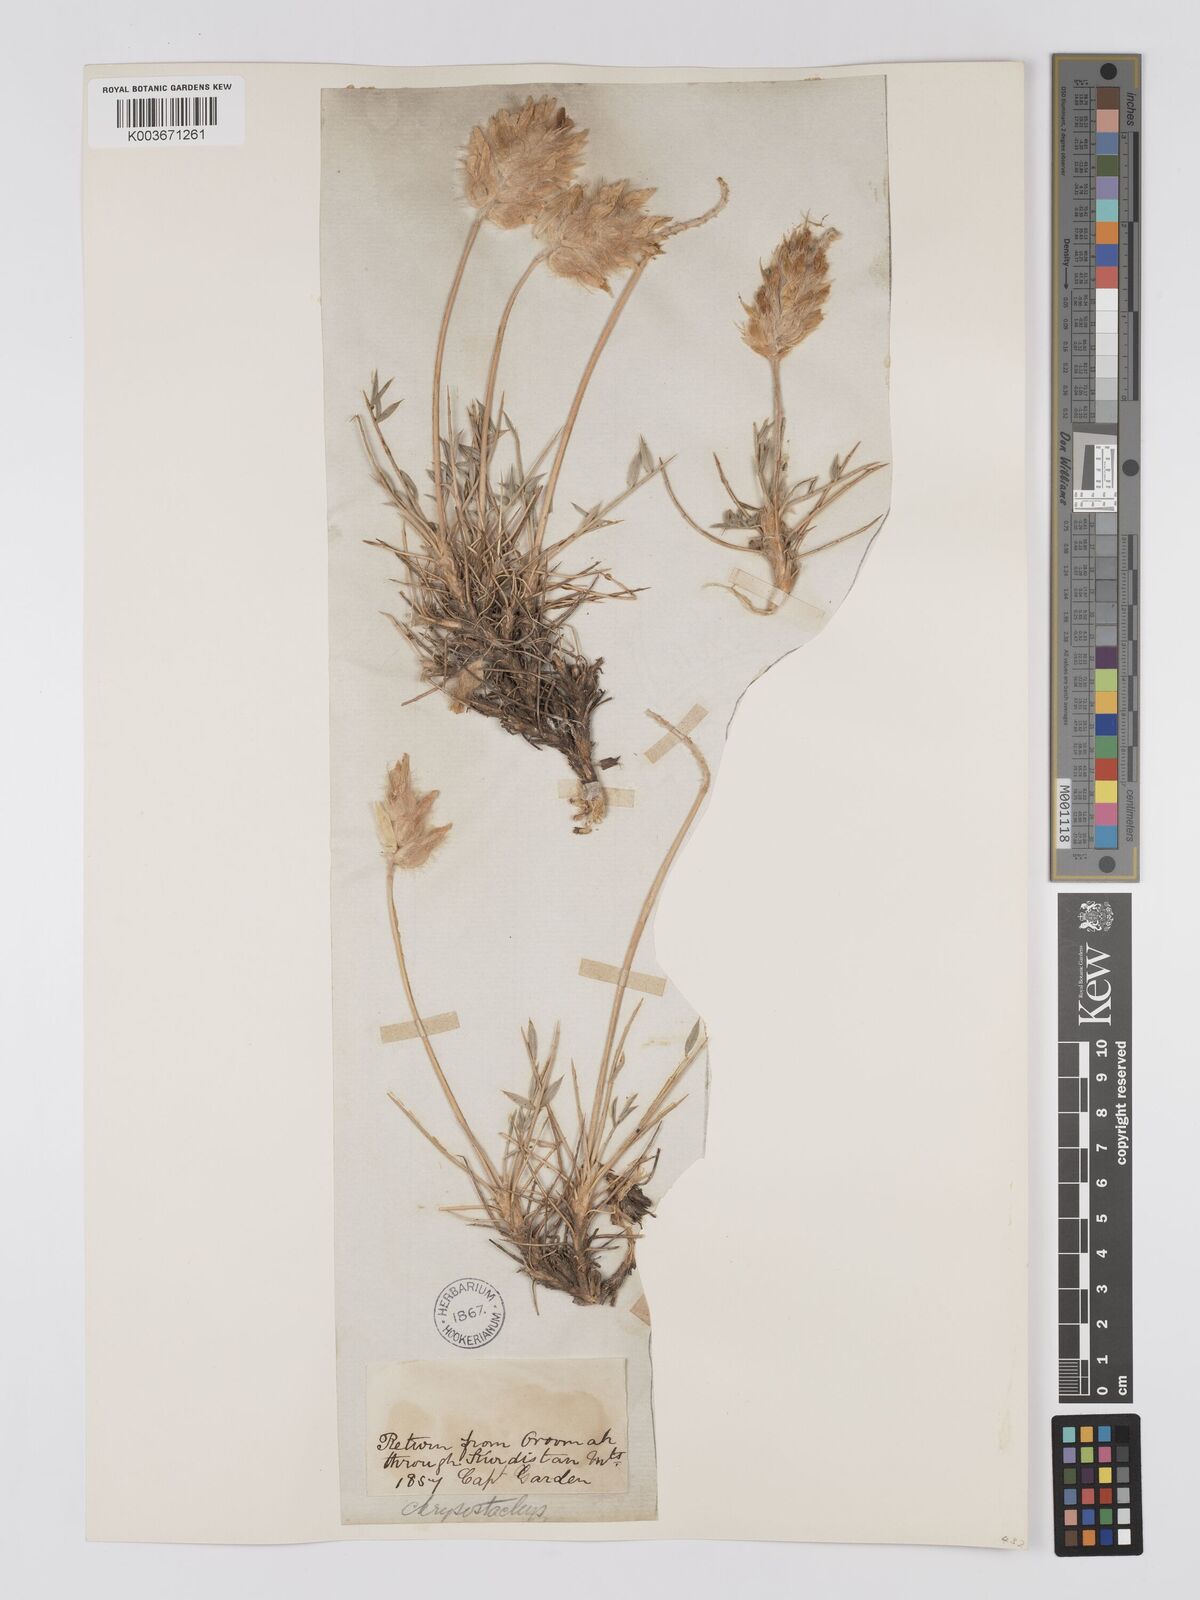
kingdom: Plantae
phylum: Tracheophyta
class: Magnoliopsida
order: Fabales
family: Fabaceae
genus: Astragalus
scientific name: Astragalus chrysostachys
